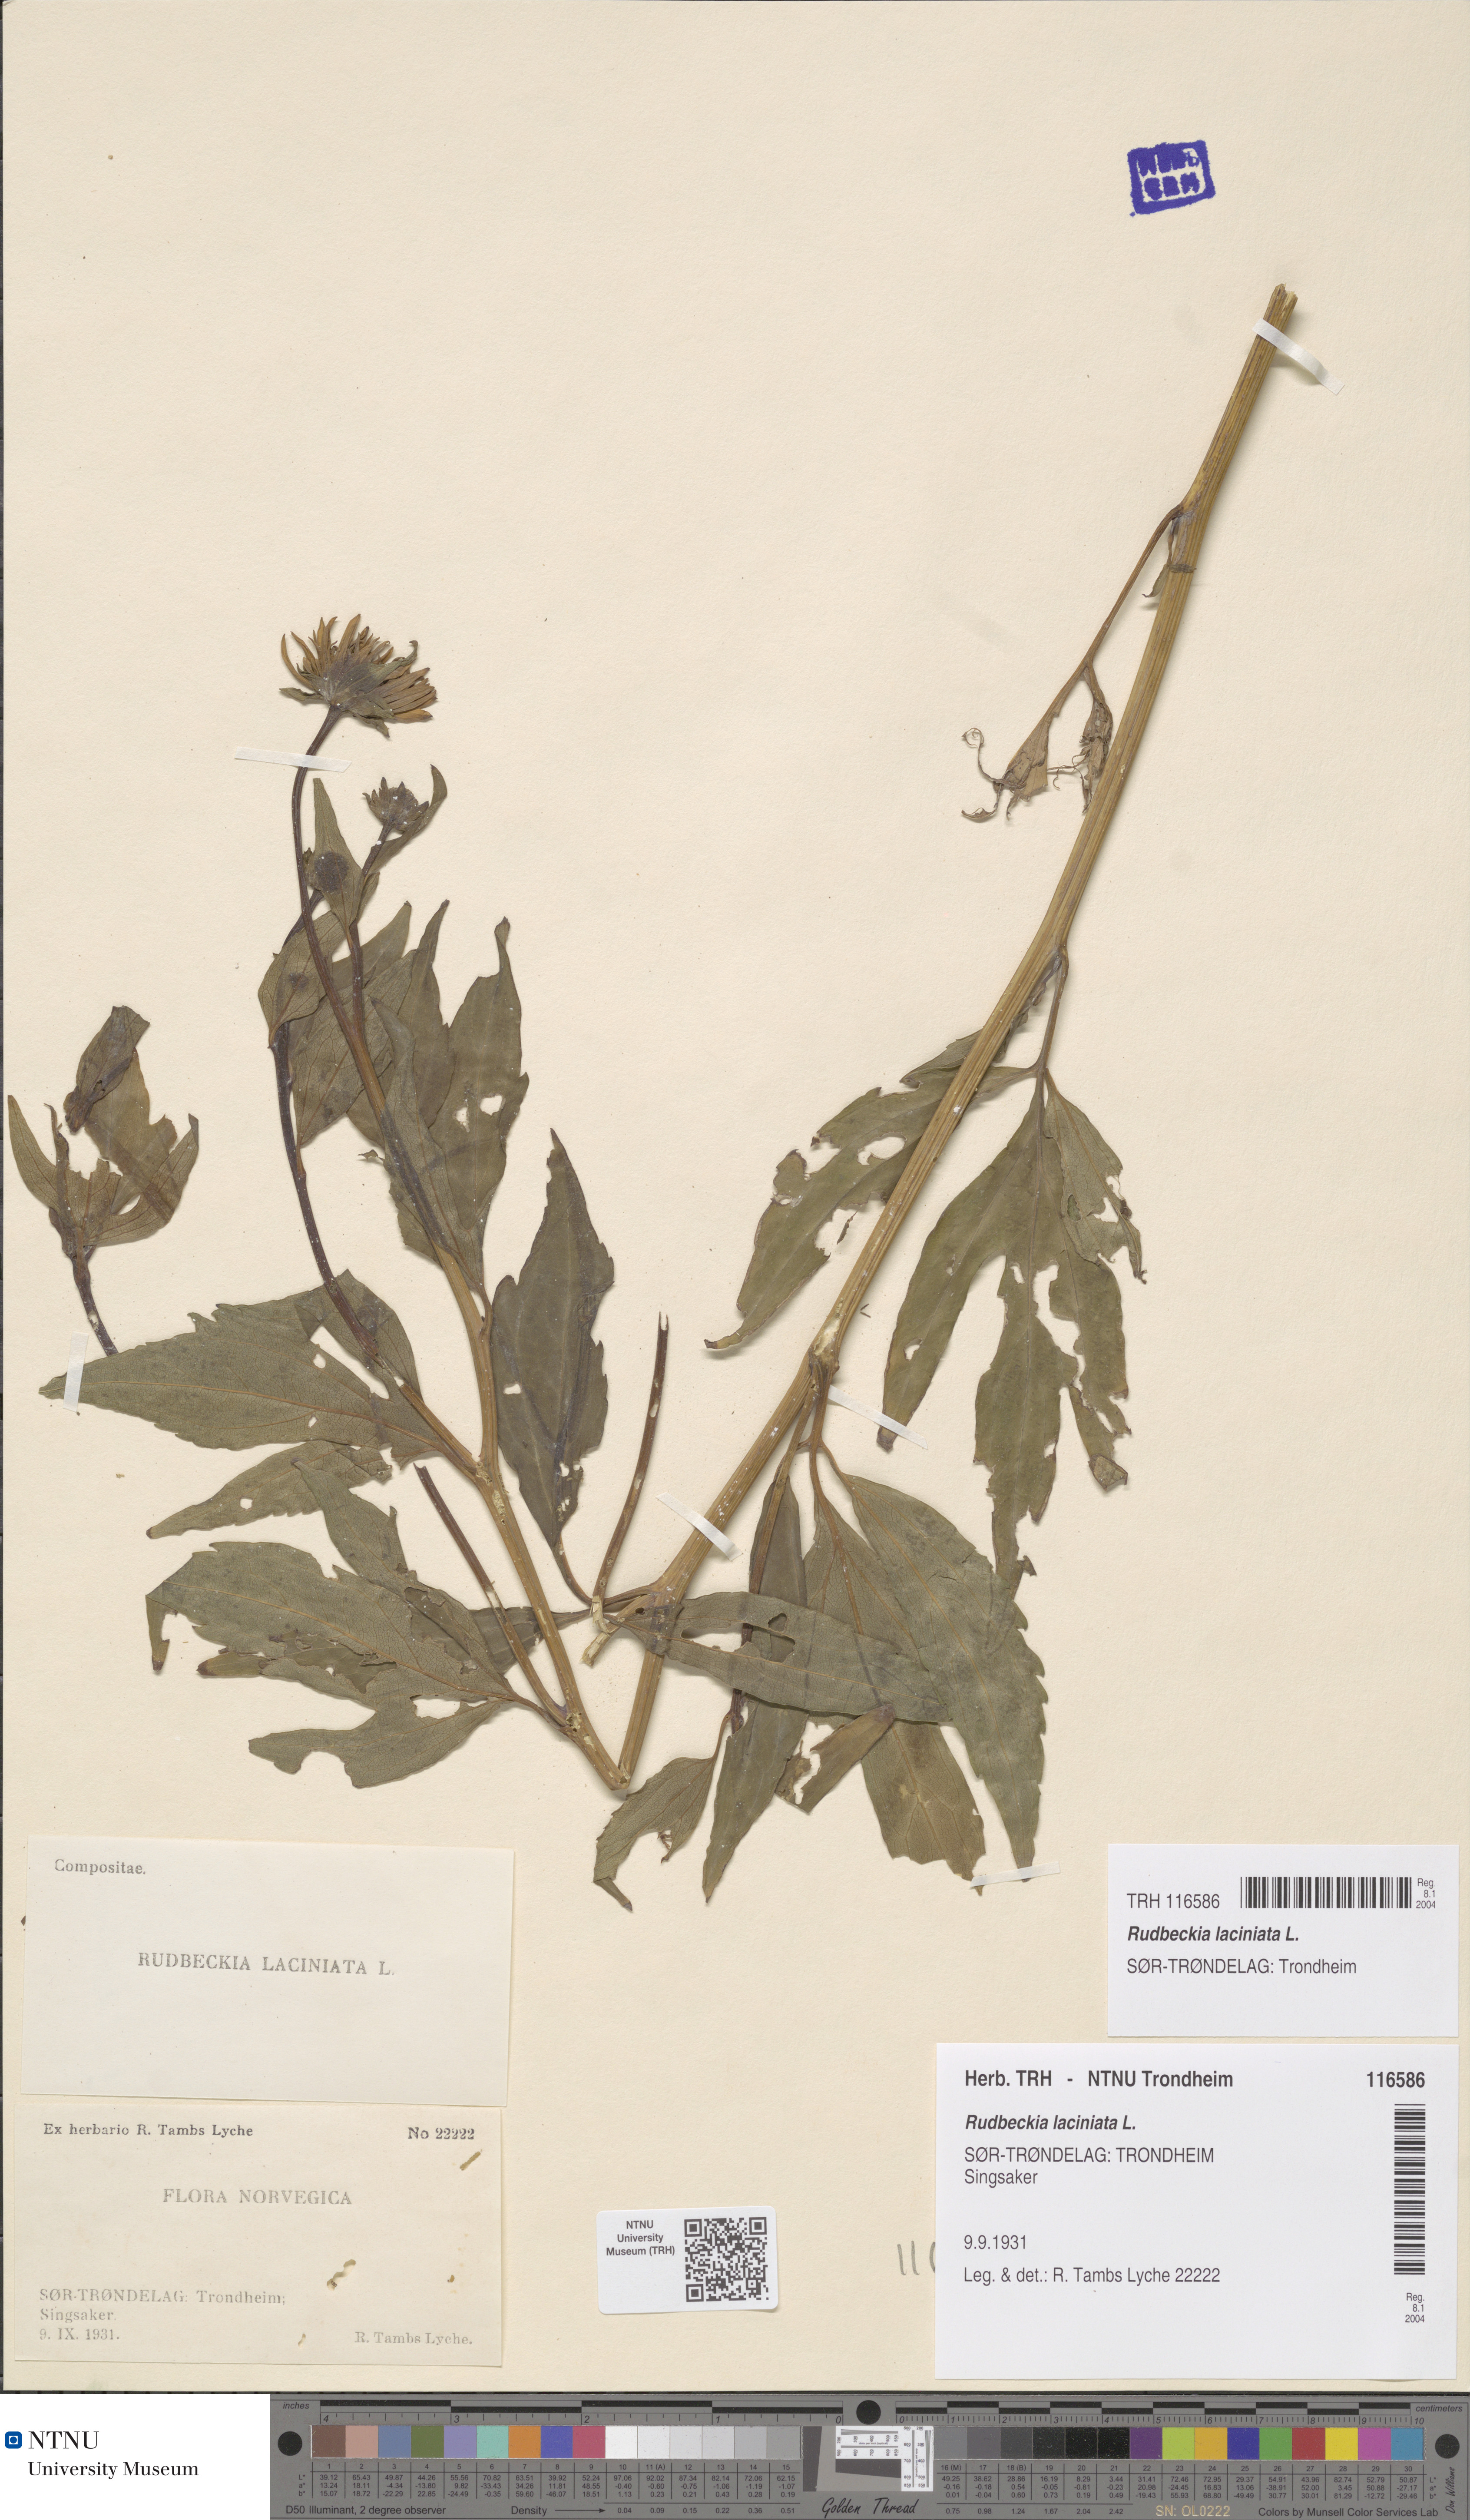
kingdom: Plantae
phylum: Tracheophyta
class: Magnoliopsida
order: Asterales
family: Asteraceae
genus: Rudbeckia
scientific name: Rudbeckia laciniata
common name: Coneflower
